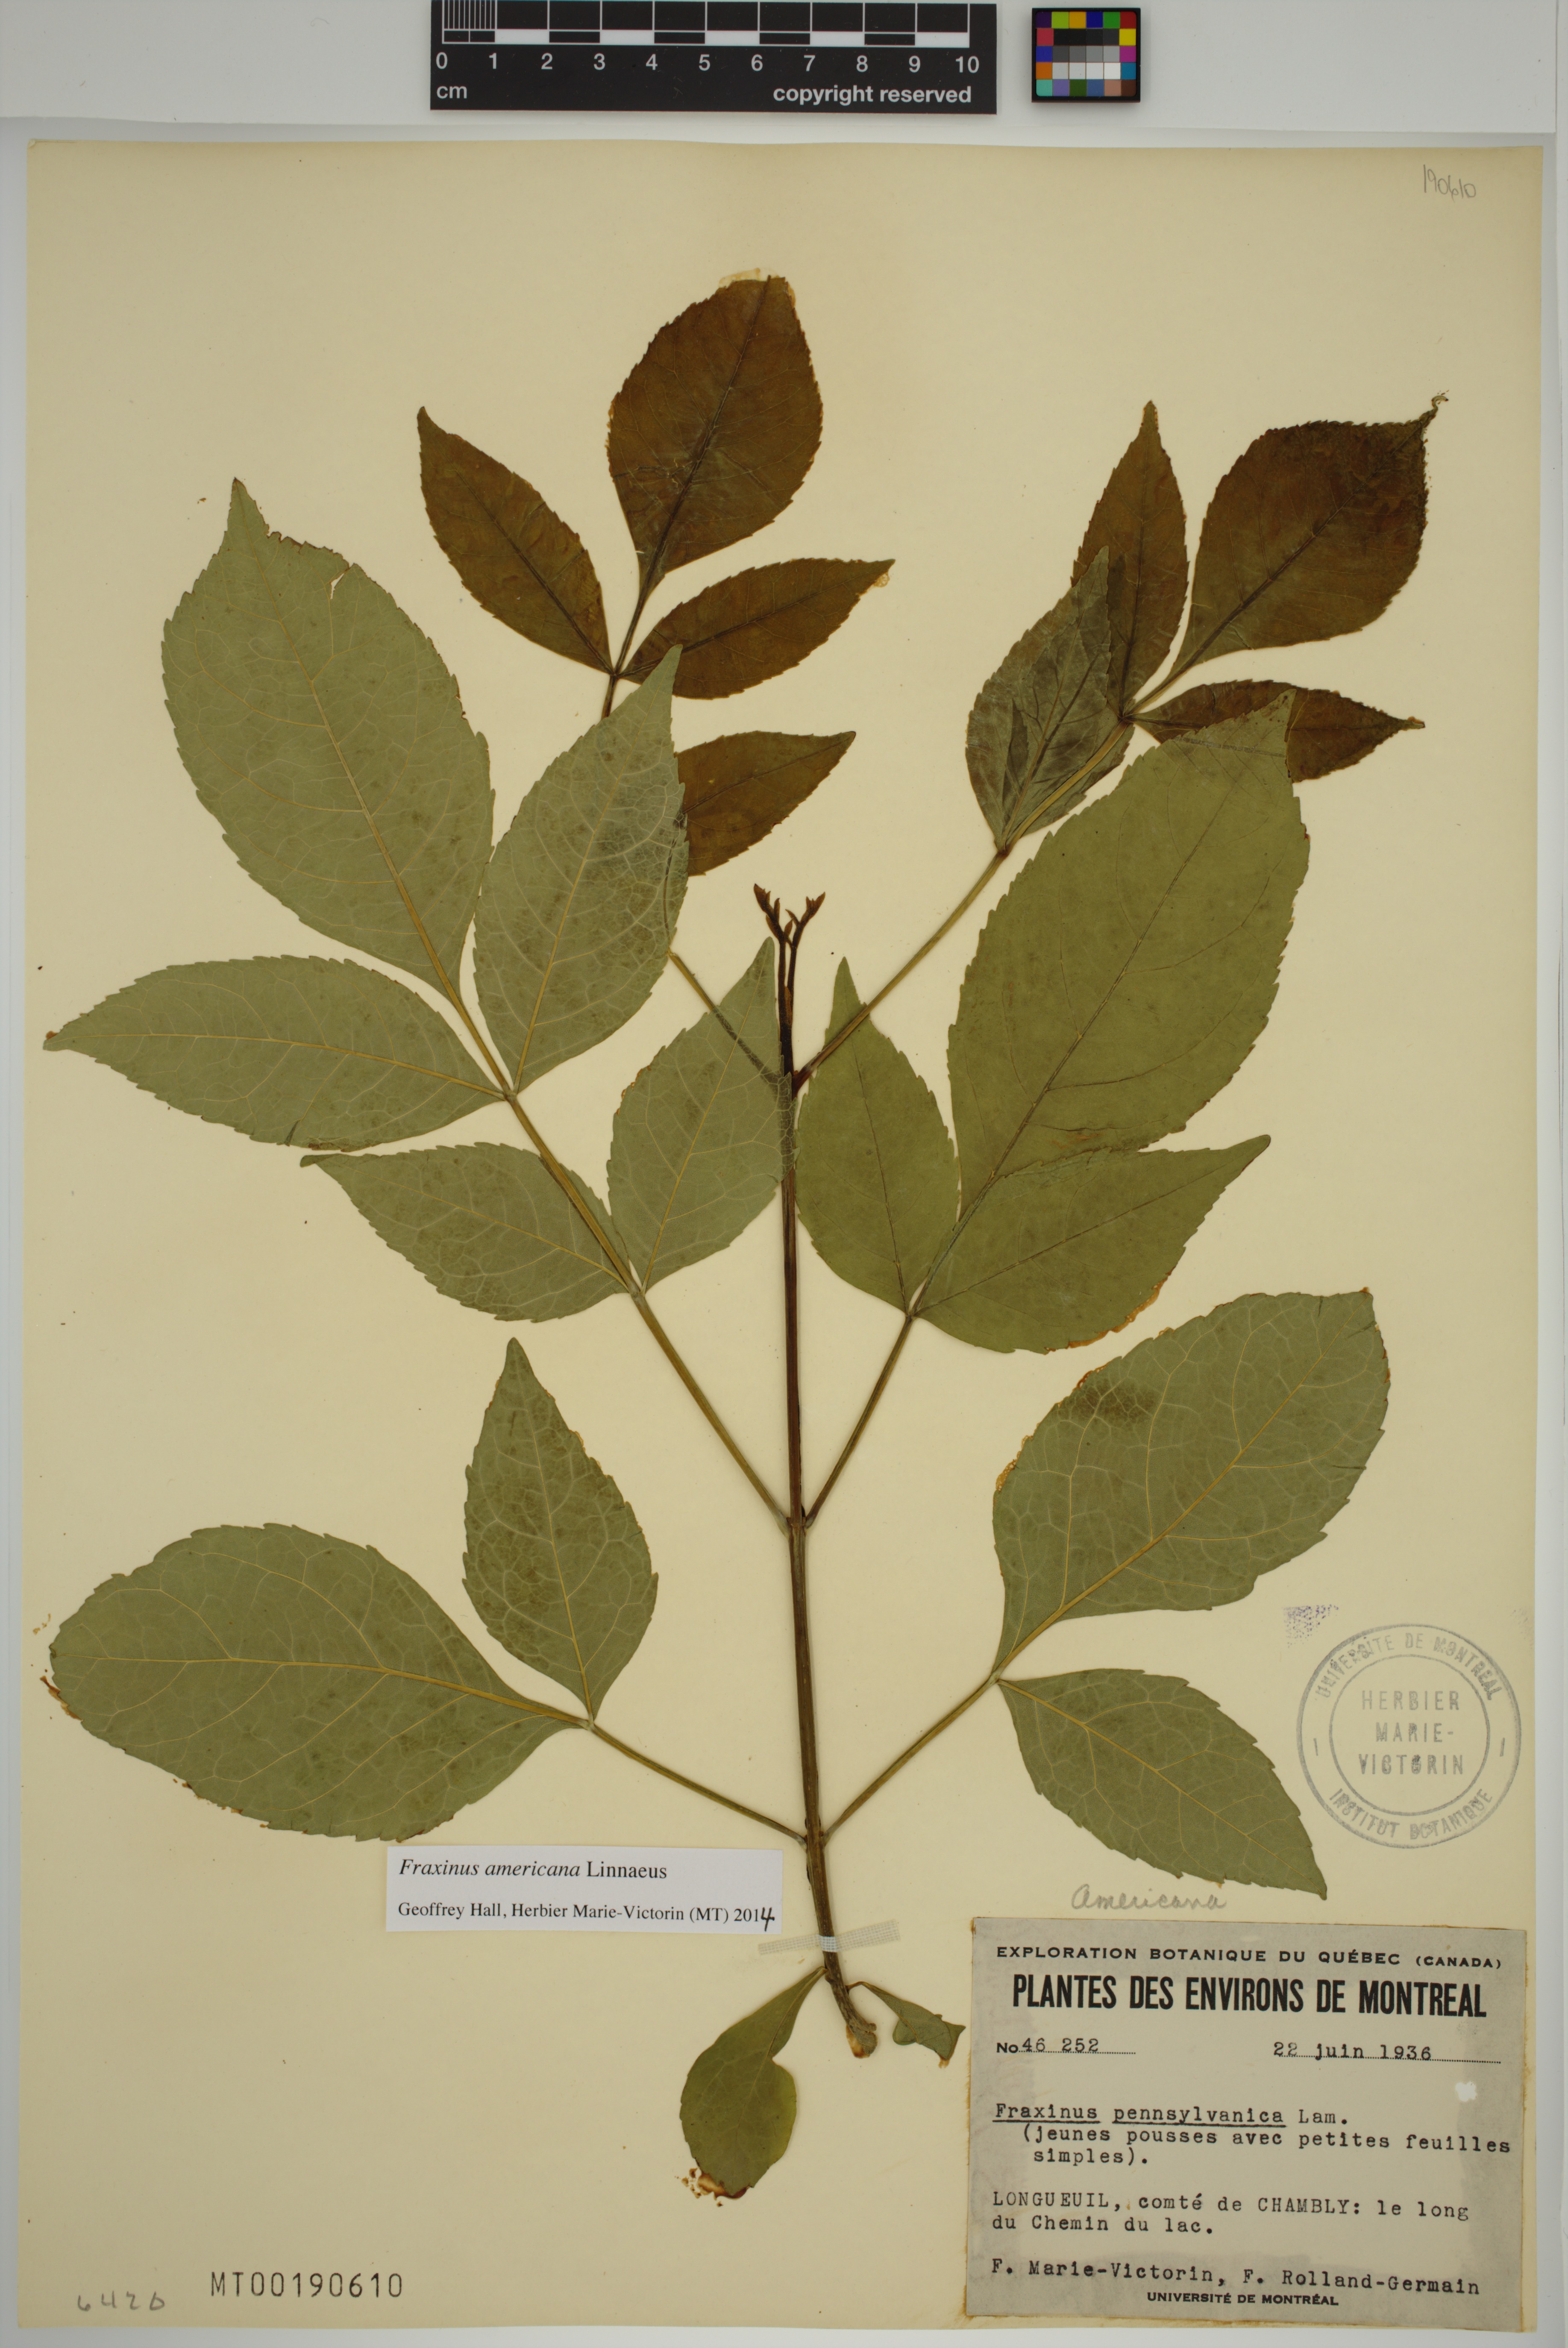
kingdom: Plantae
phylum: Tracheophyta
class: Magnoliopsida
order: Lamiales
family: Oleaceae
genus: Fraxinus
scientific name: Fraxinus pennsylvanica
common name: Green ash
